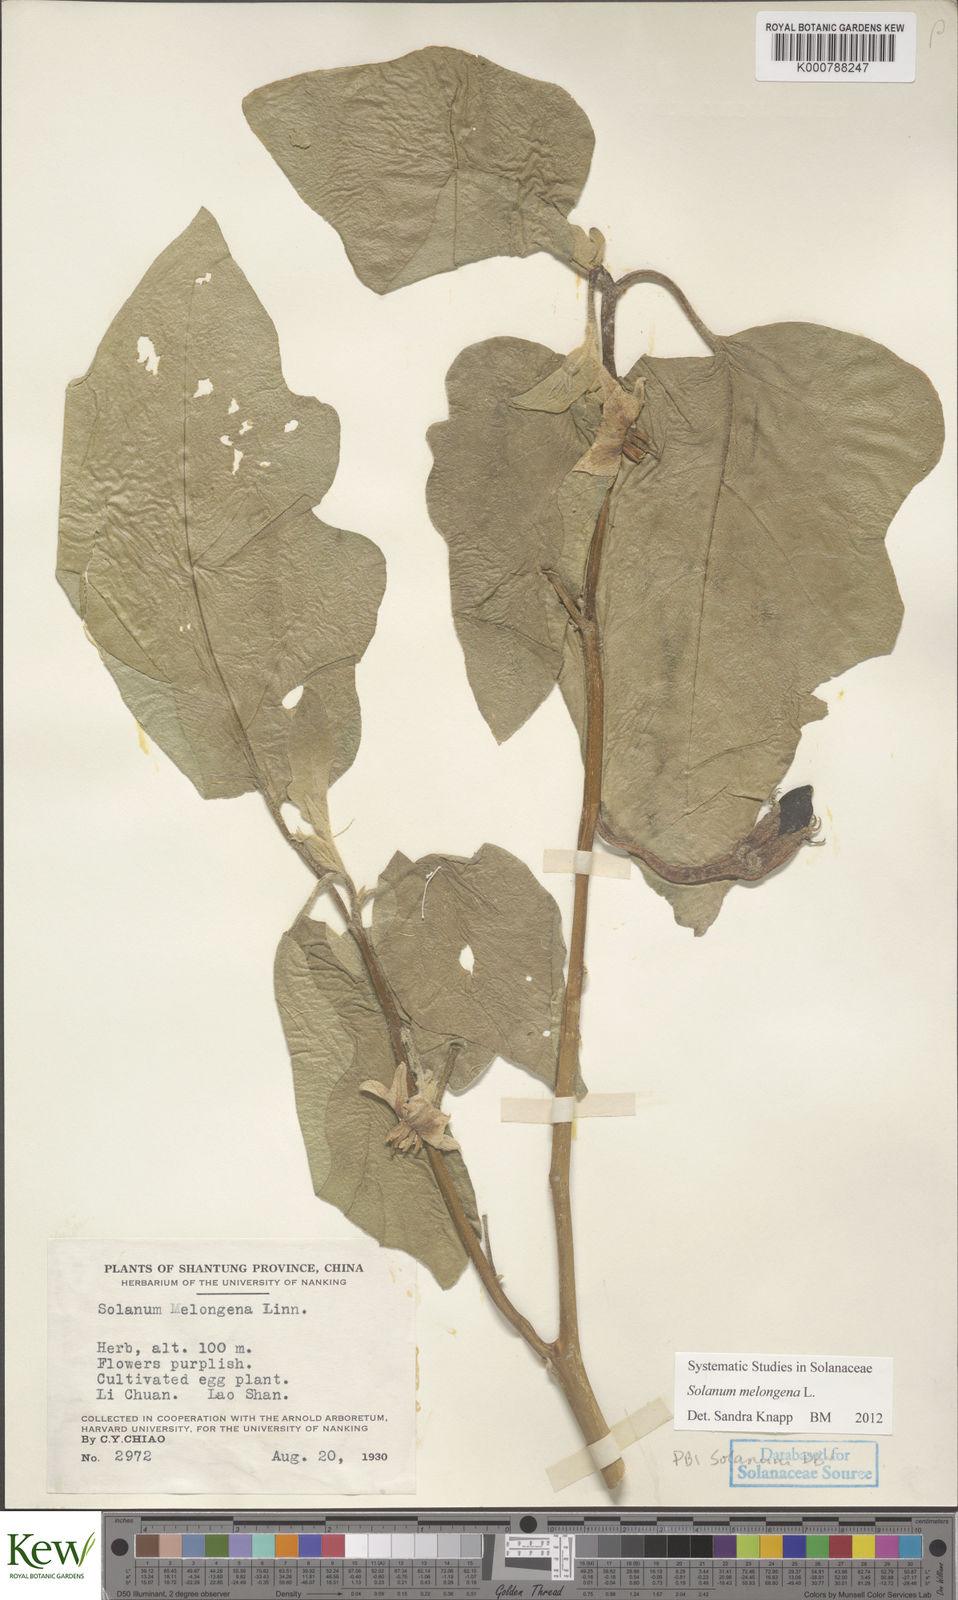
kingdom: Plantae
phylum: Tracheophyta
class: Magnoliopsida
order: Solanales
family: Solanaceae
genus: Solanum
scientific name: Solanum melongena
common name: Eggplant
